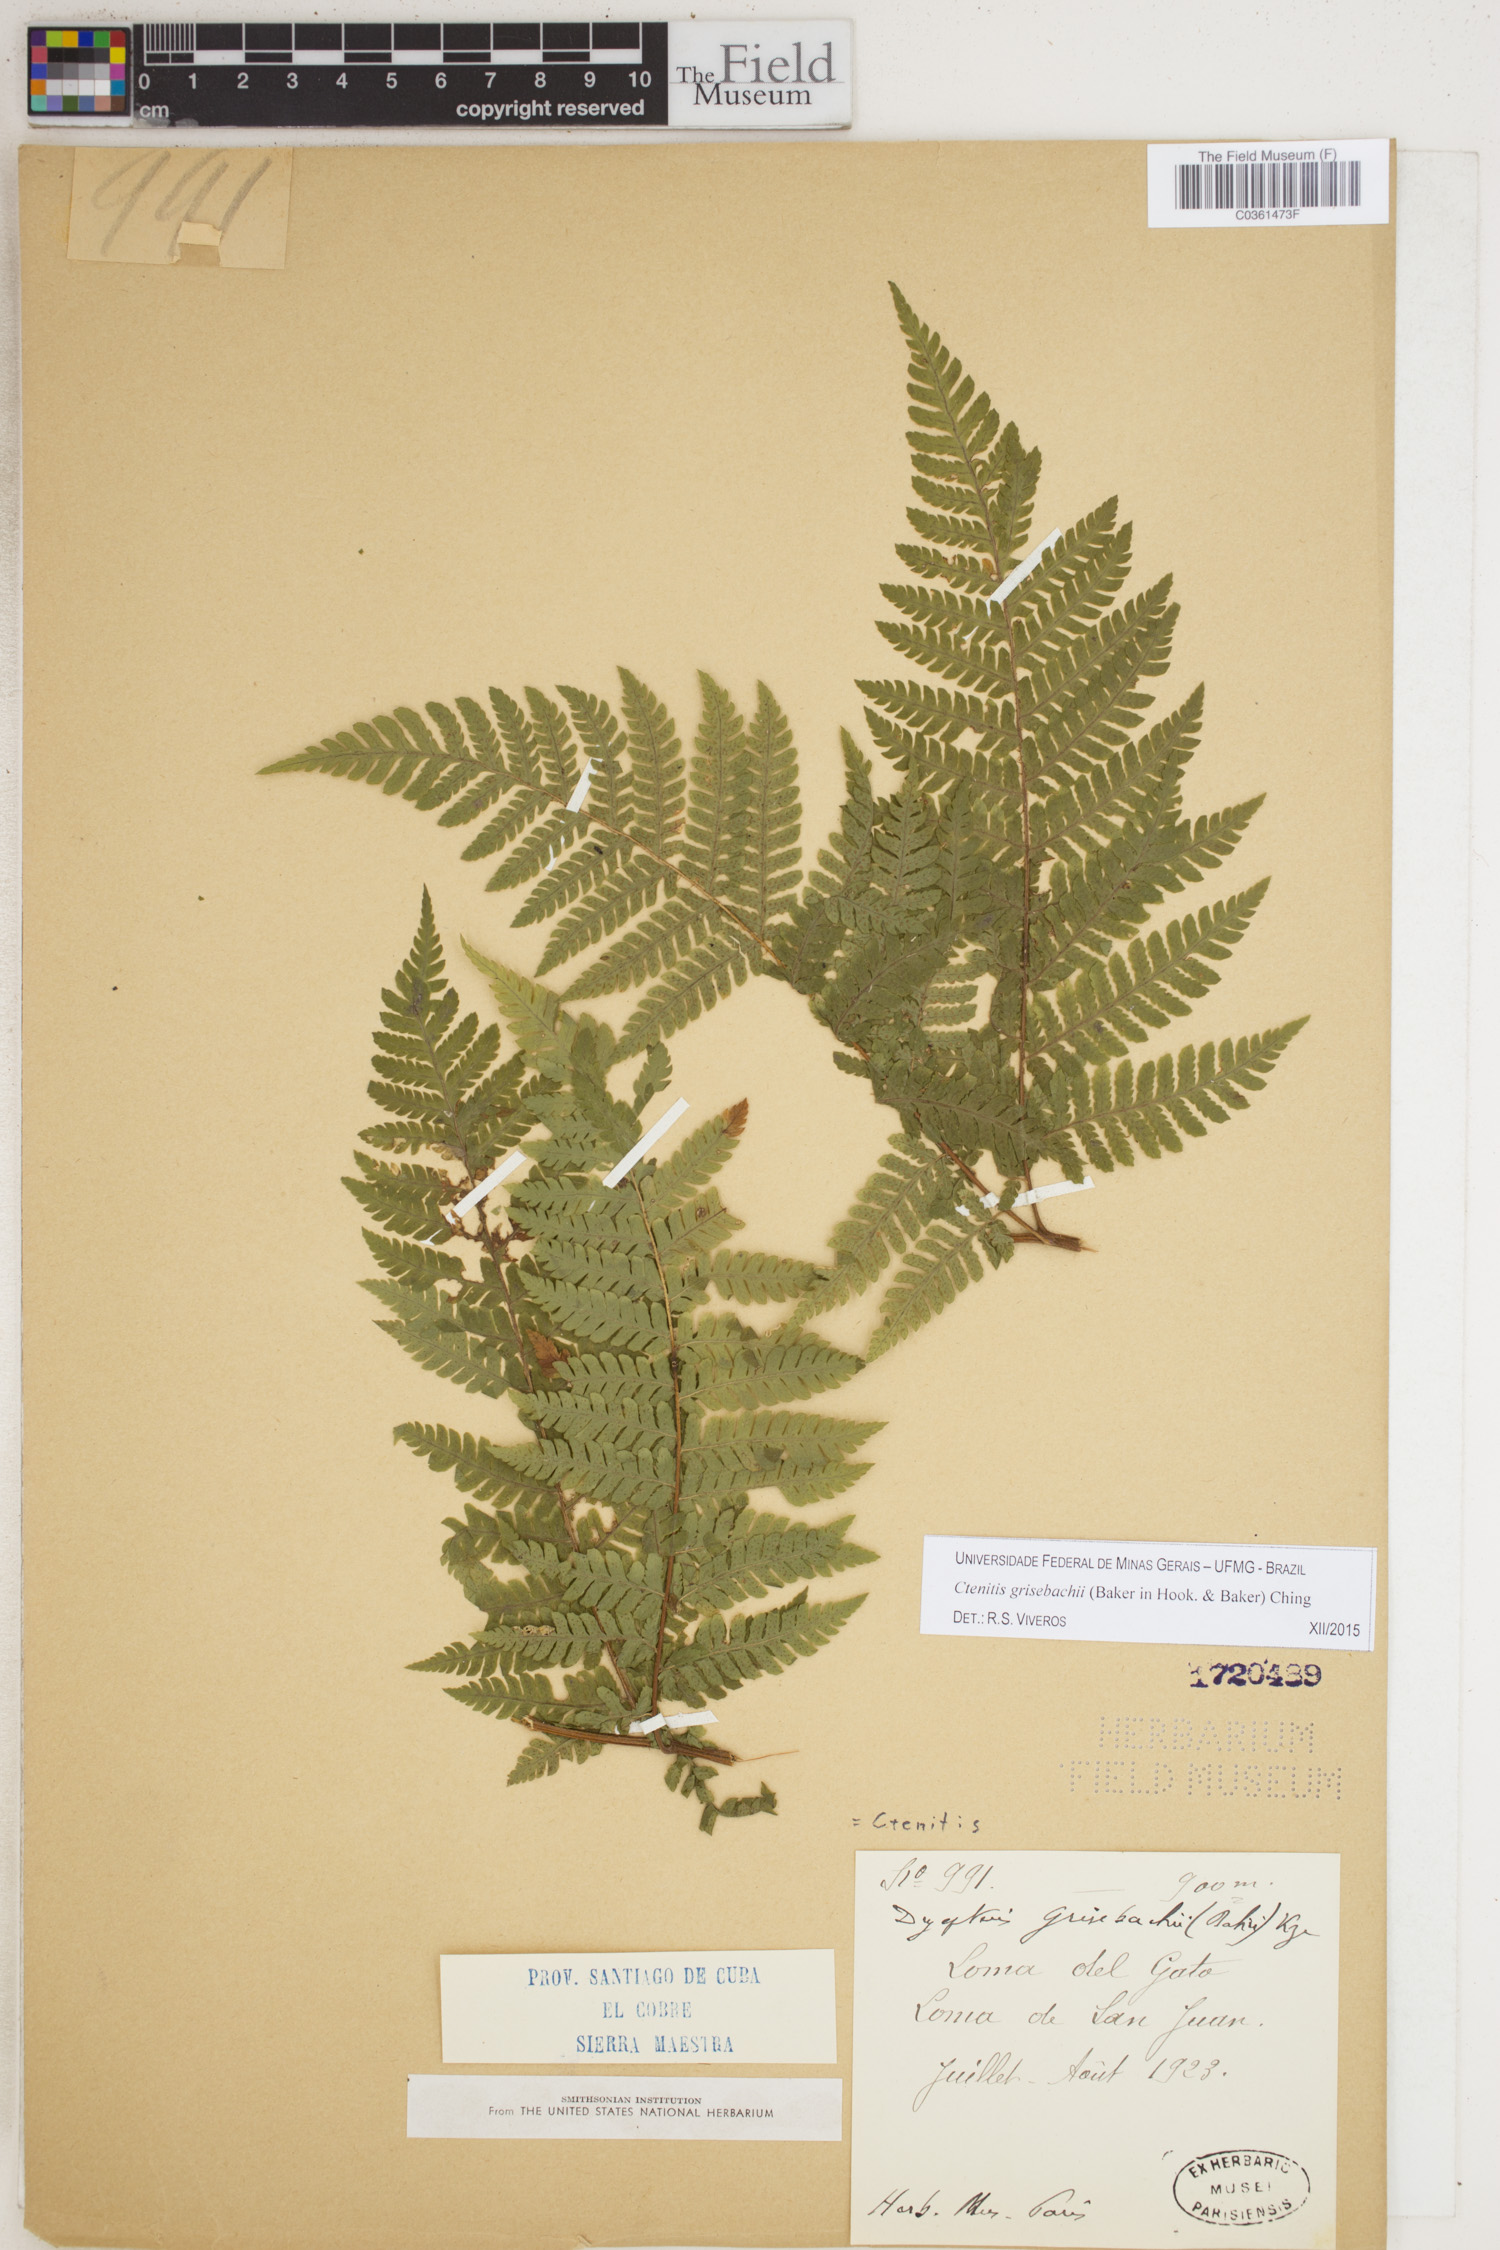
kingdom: Plantae
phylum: Tracheophyta
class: Polypodiopsida
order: Polypodiales
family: Dryopteridaceae
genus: Ctenitis
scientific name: Ctenitis grisebachii
